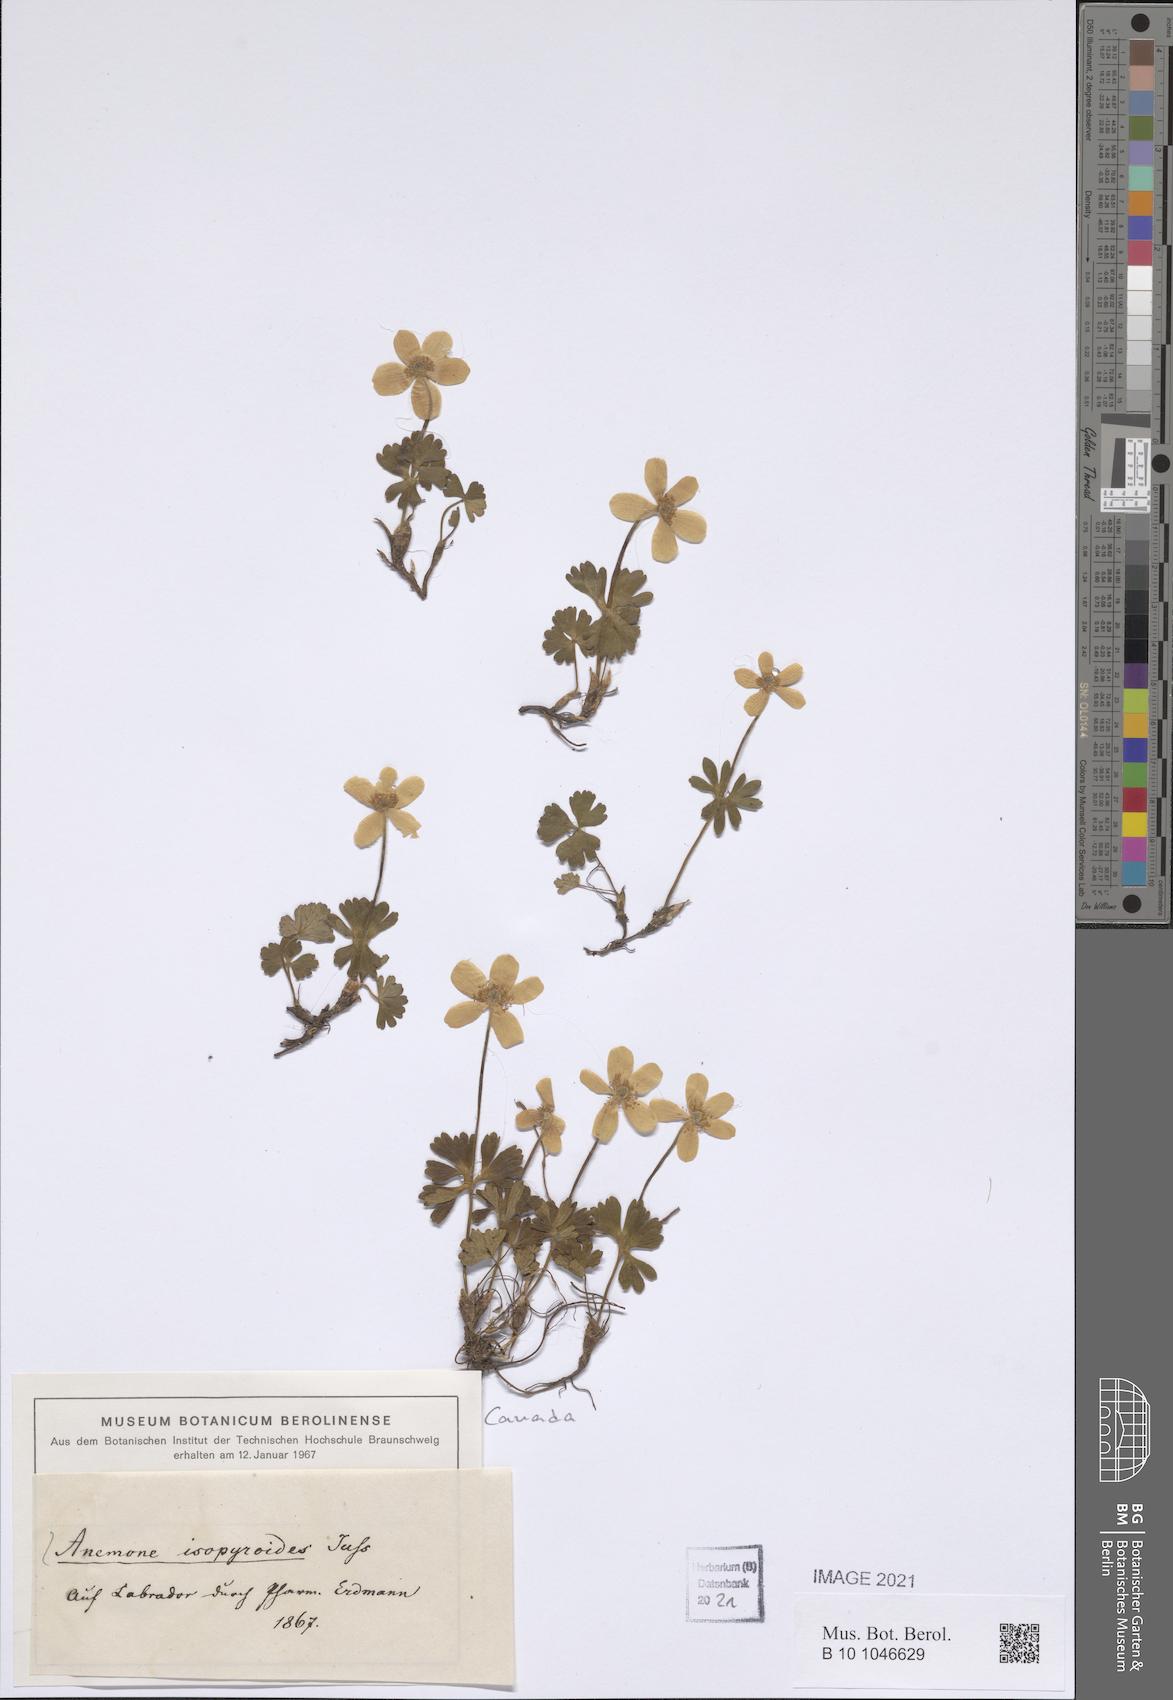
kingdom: Plantae
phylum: Tracheophyta
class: Magnoliopsida
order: Ranunculales
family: Ranunculaceae
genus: Anemone
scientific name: Anemone isopyroides
